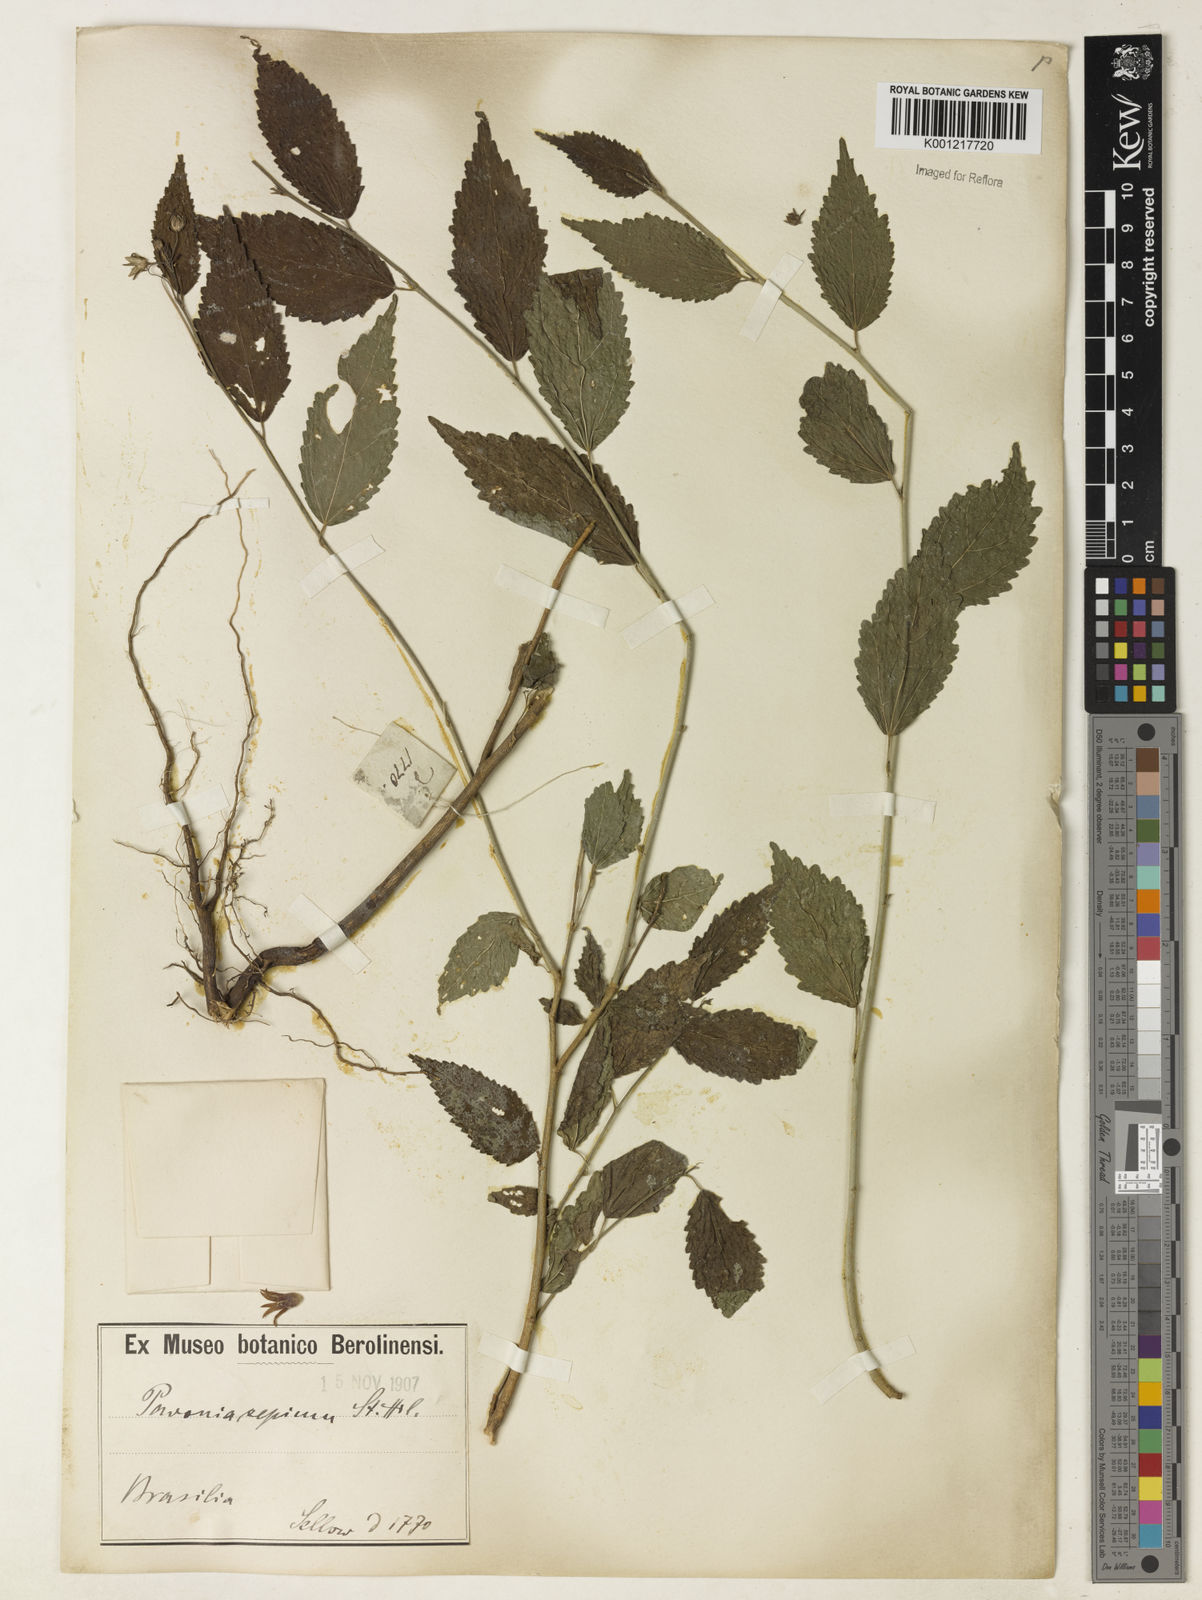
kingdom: Plantae
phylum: Tracheophyta
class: Magnoliopsida
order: Malvales
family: Malvaceae
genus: Pavonia
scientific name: Pavonia sepium
